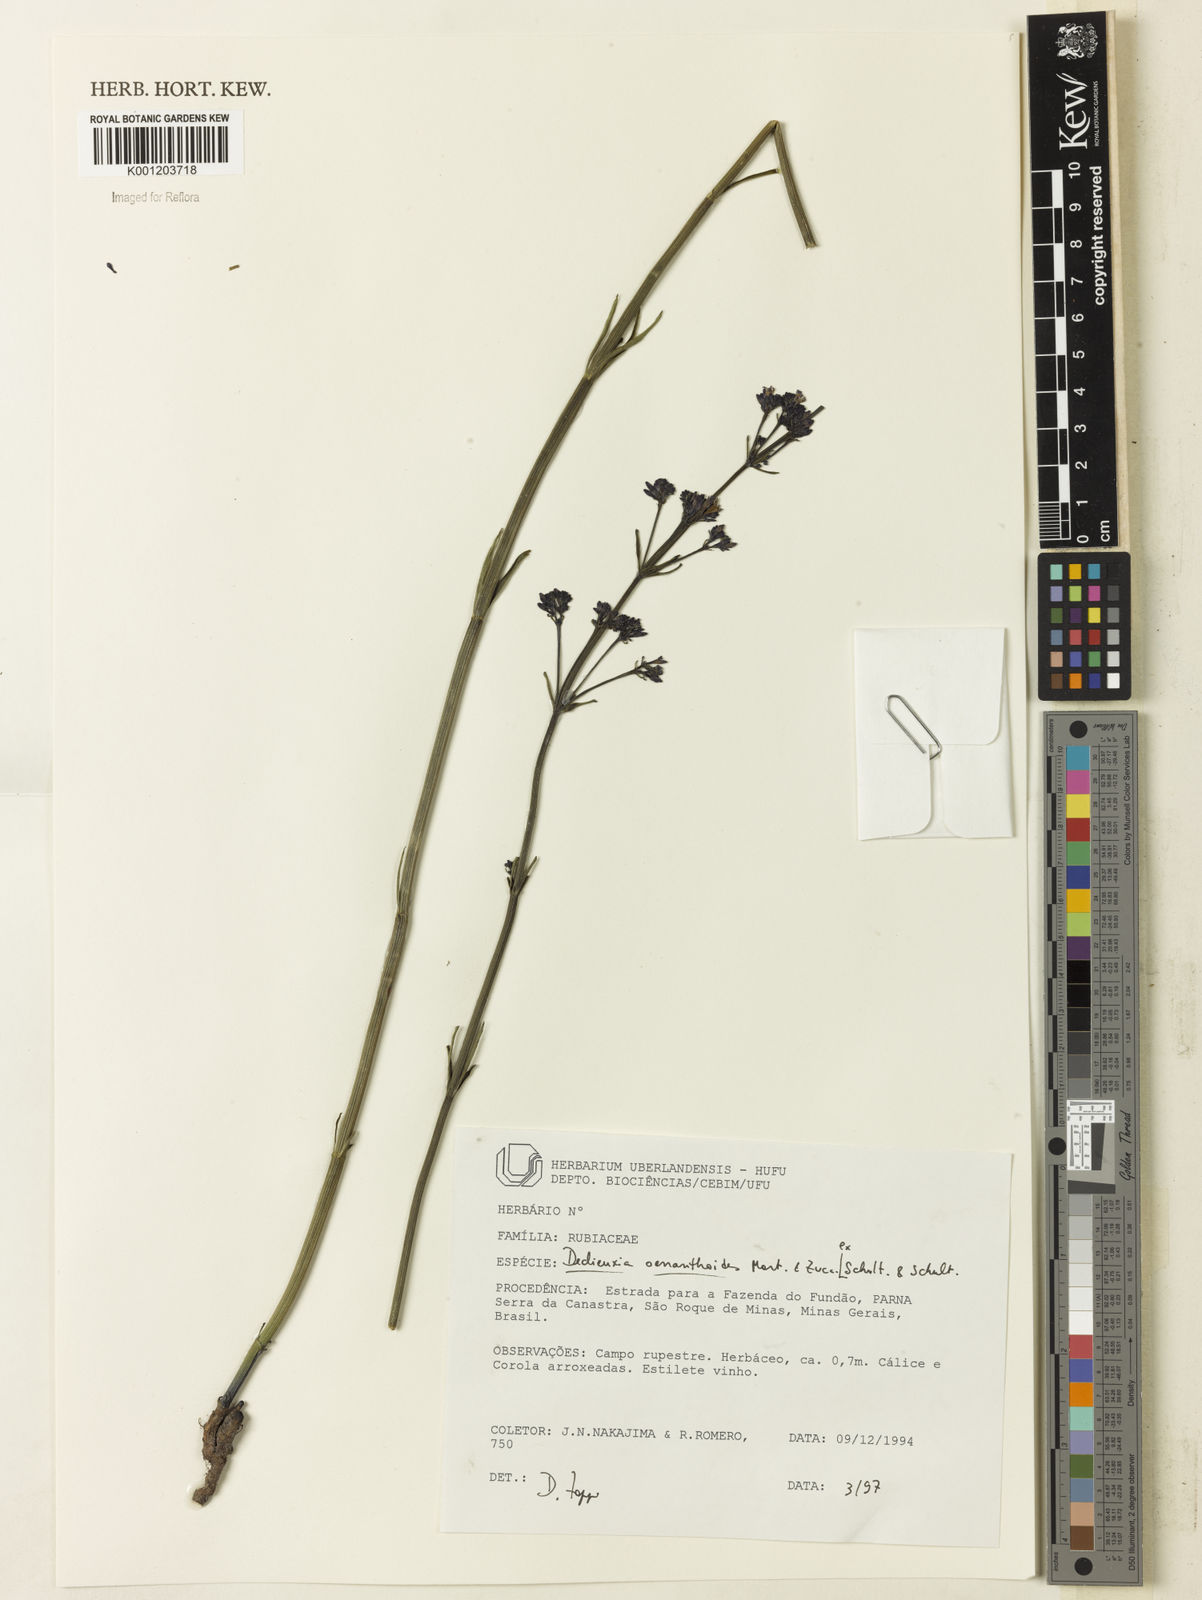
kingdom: Plantae
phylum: Tracheophyta
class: Magnoliopsida
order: Gentianales
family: Rubiaceae
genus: Declieuxia
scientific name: Declieuxia
